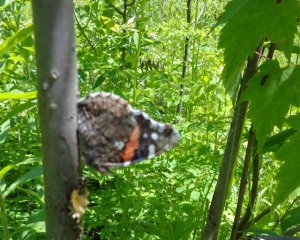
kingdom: Animalia
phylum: Arthropoda
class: Insecta
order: Lepidoptera
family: Nymphalidae
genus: Vanessa
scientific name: Vanessa atalanta
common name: Red Admiral
